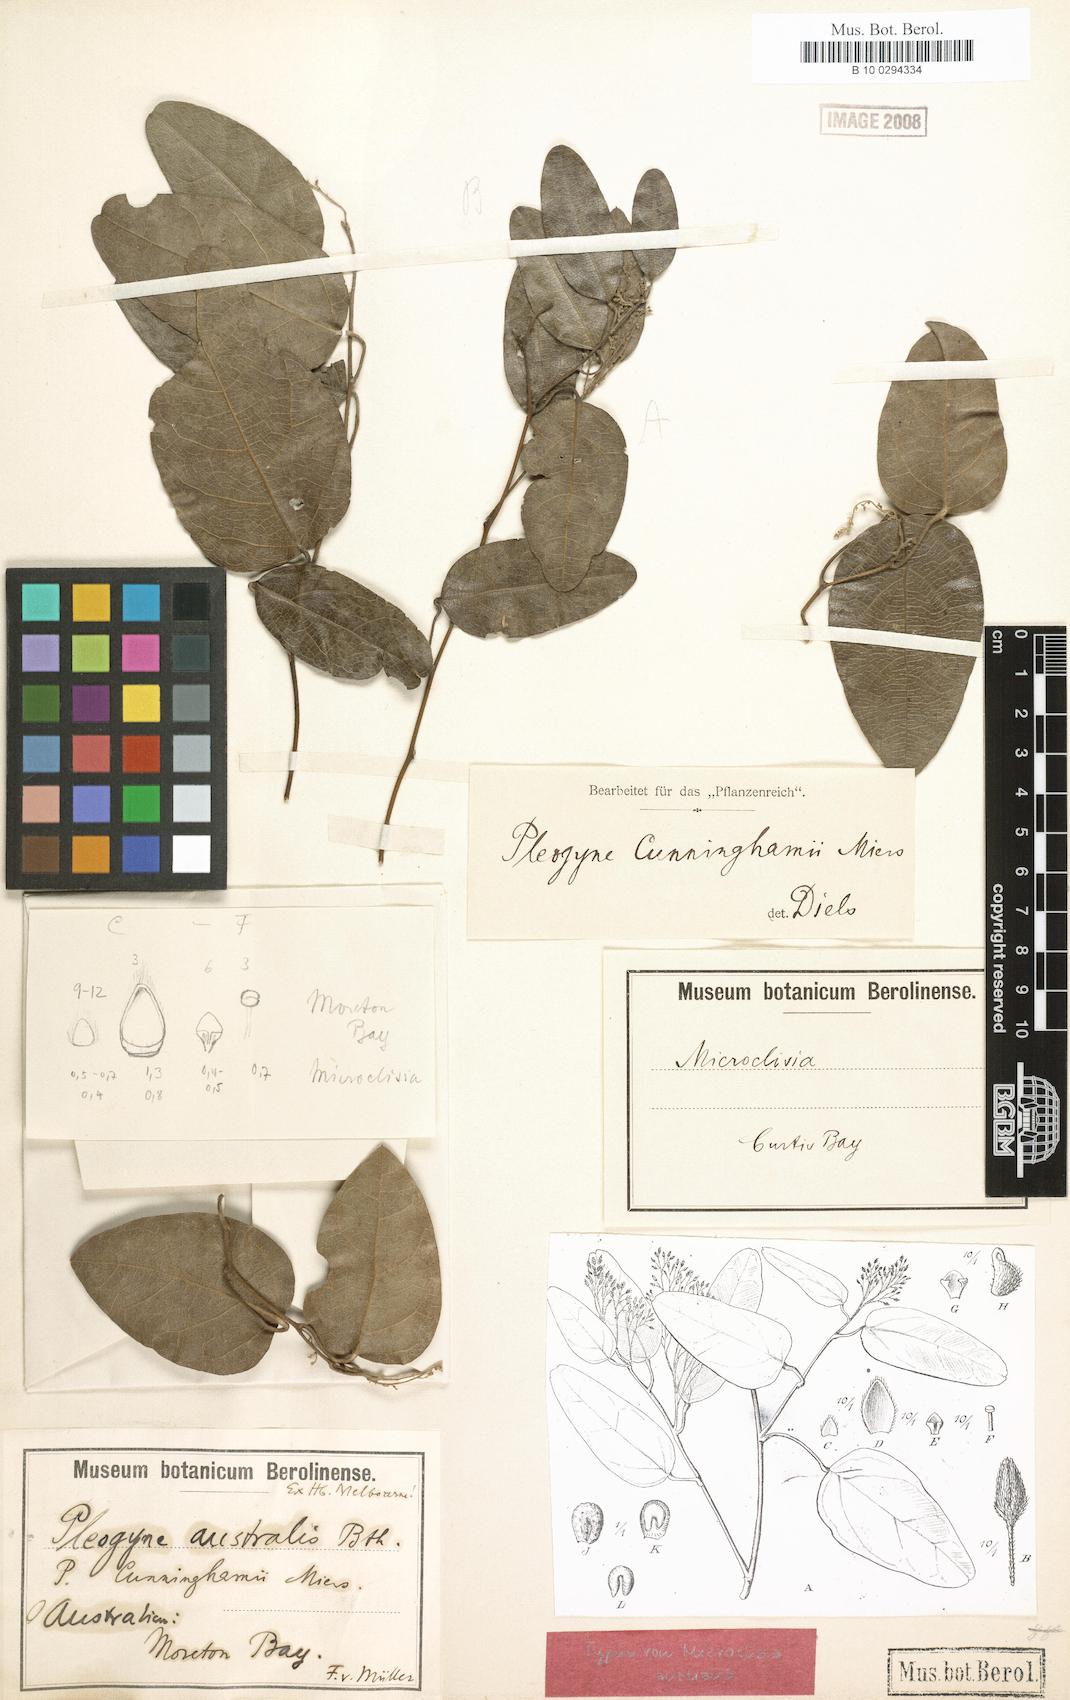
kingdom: Plantae
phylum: Tracheophyta
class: Magnoliopsida
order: Ranunculales
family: Menispermaceae
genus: Pleogyne
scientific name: Pleogyne australis
